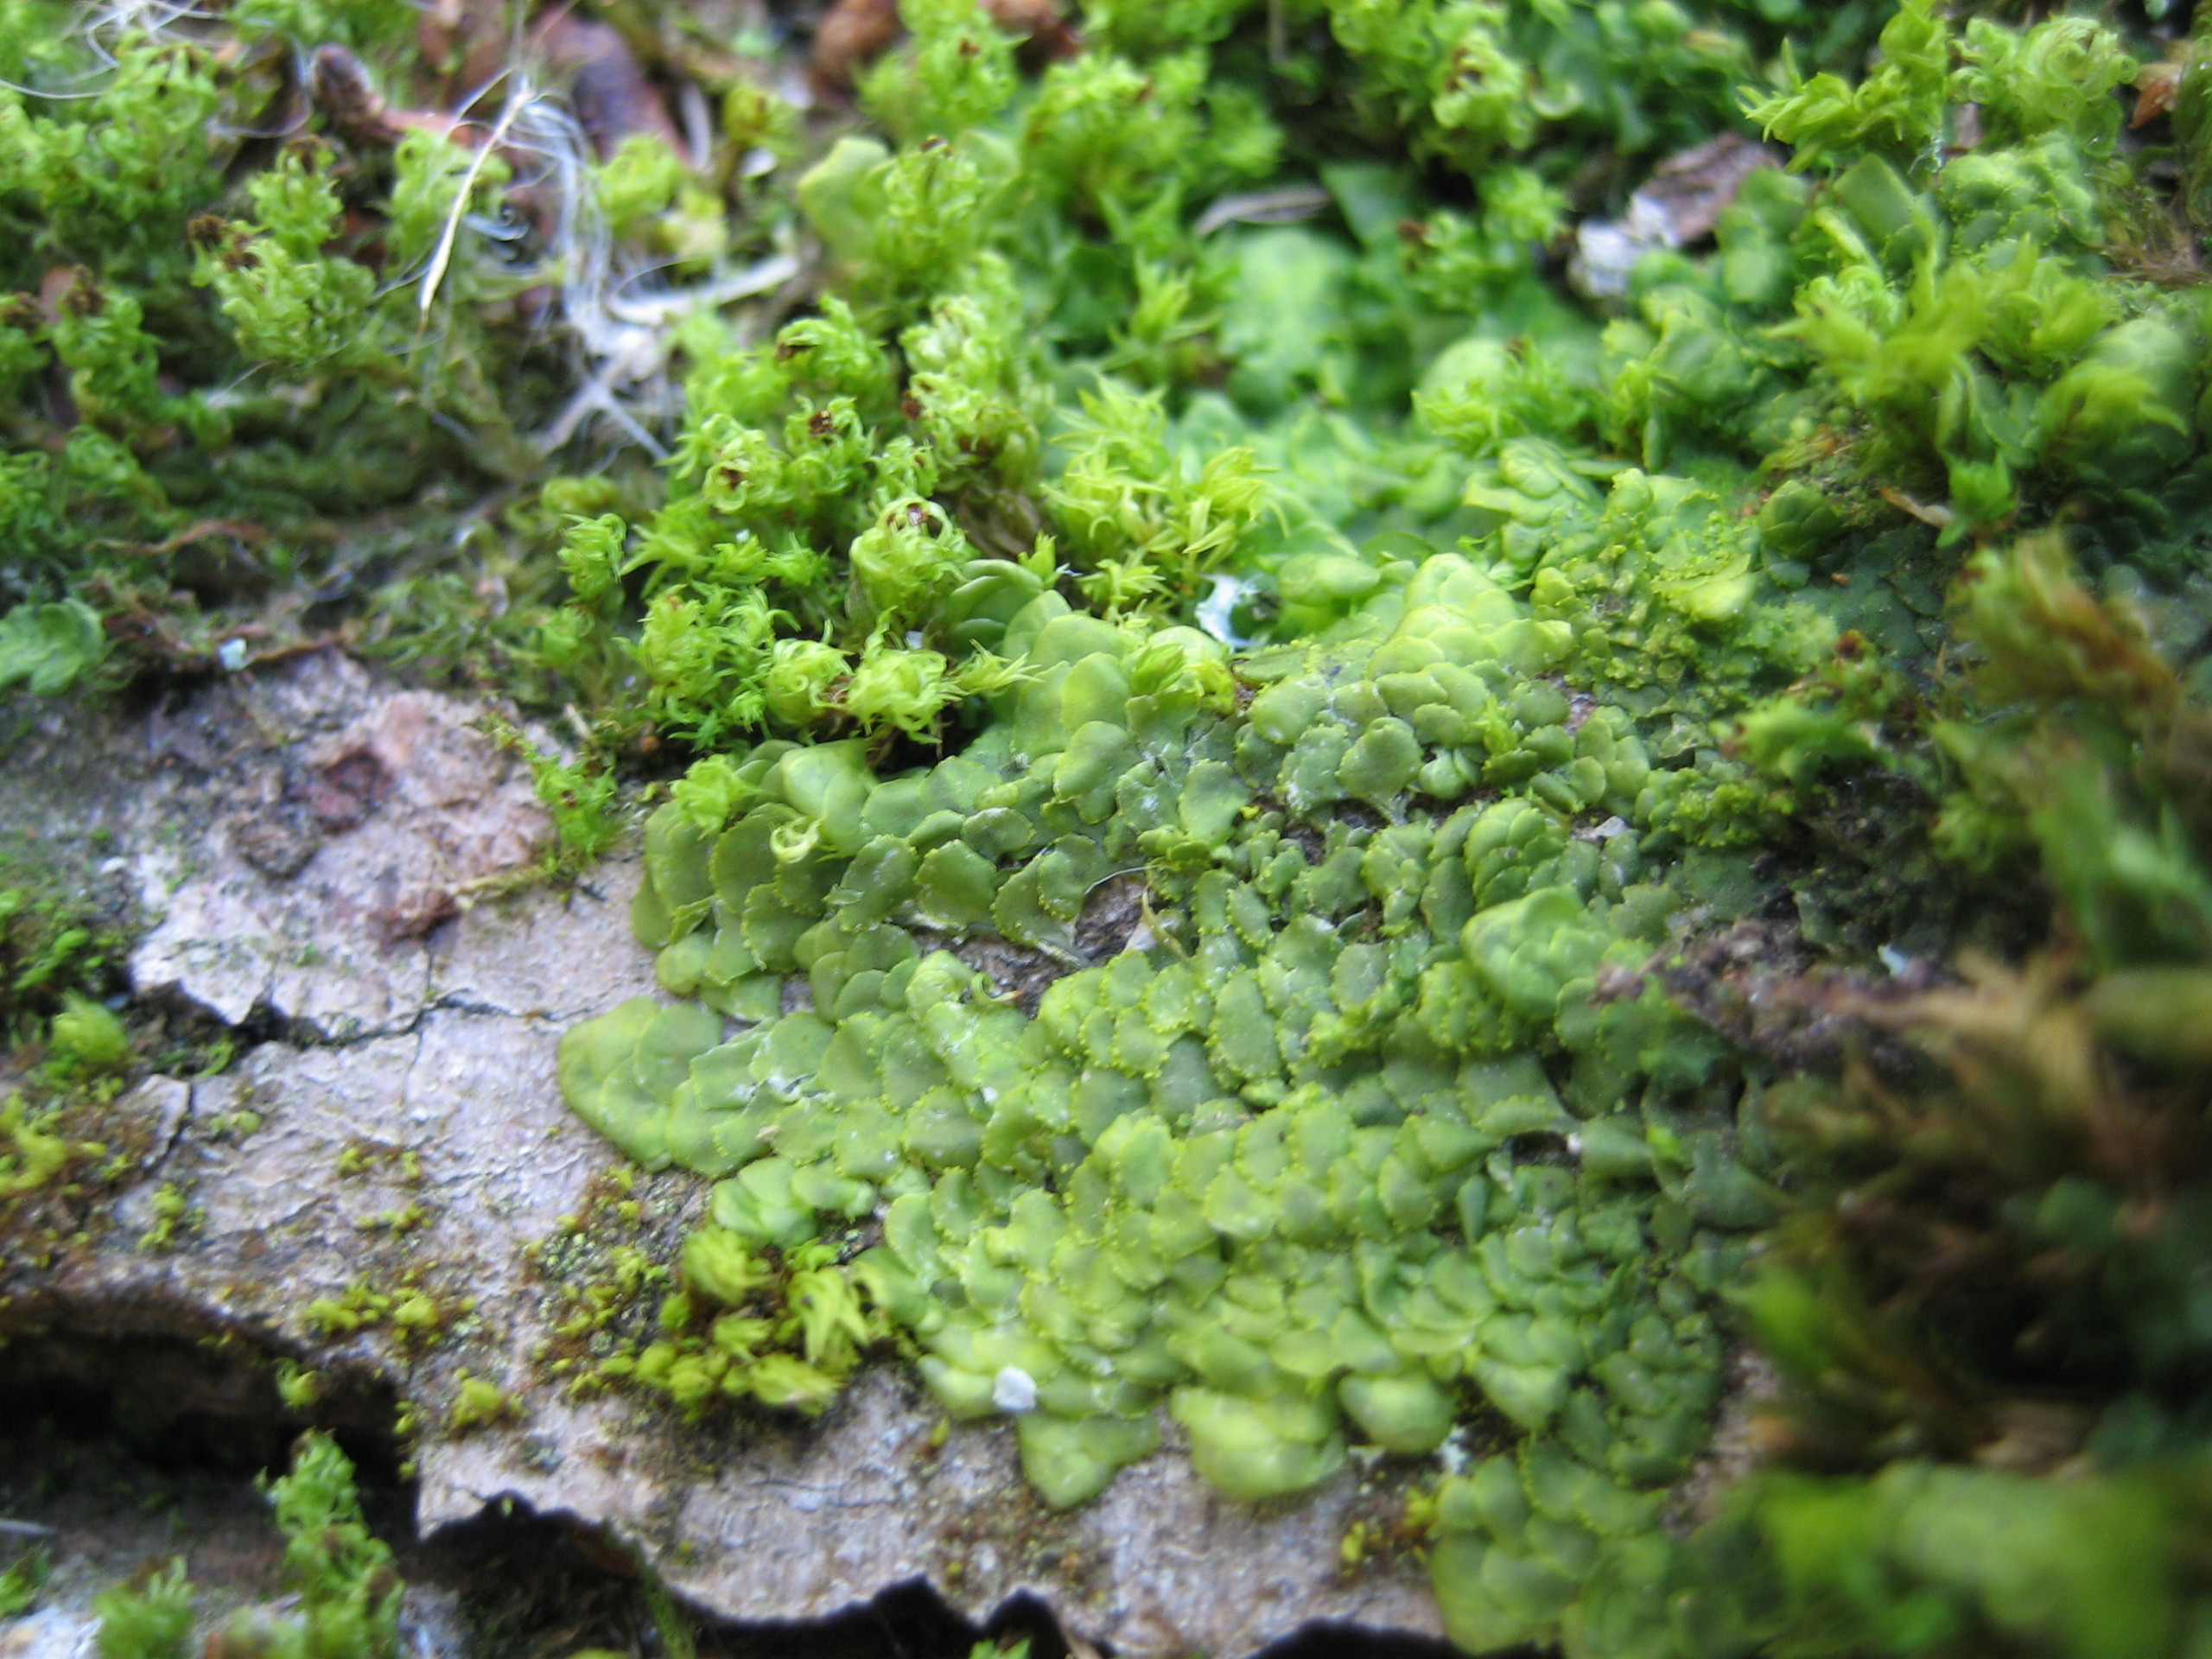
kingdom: Plantae
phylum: Marchantiophyta
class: Jungermanniopsida
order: Porellales
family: Radulaceae
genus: Radula
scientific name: Radula complanata
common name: Almindelig spartelmos
